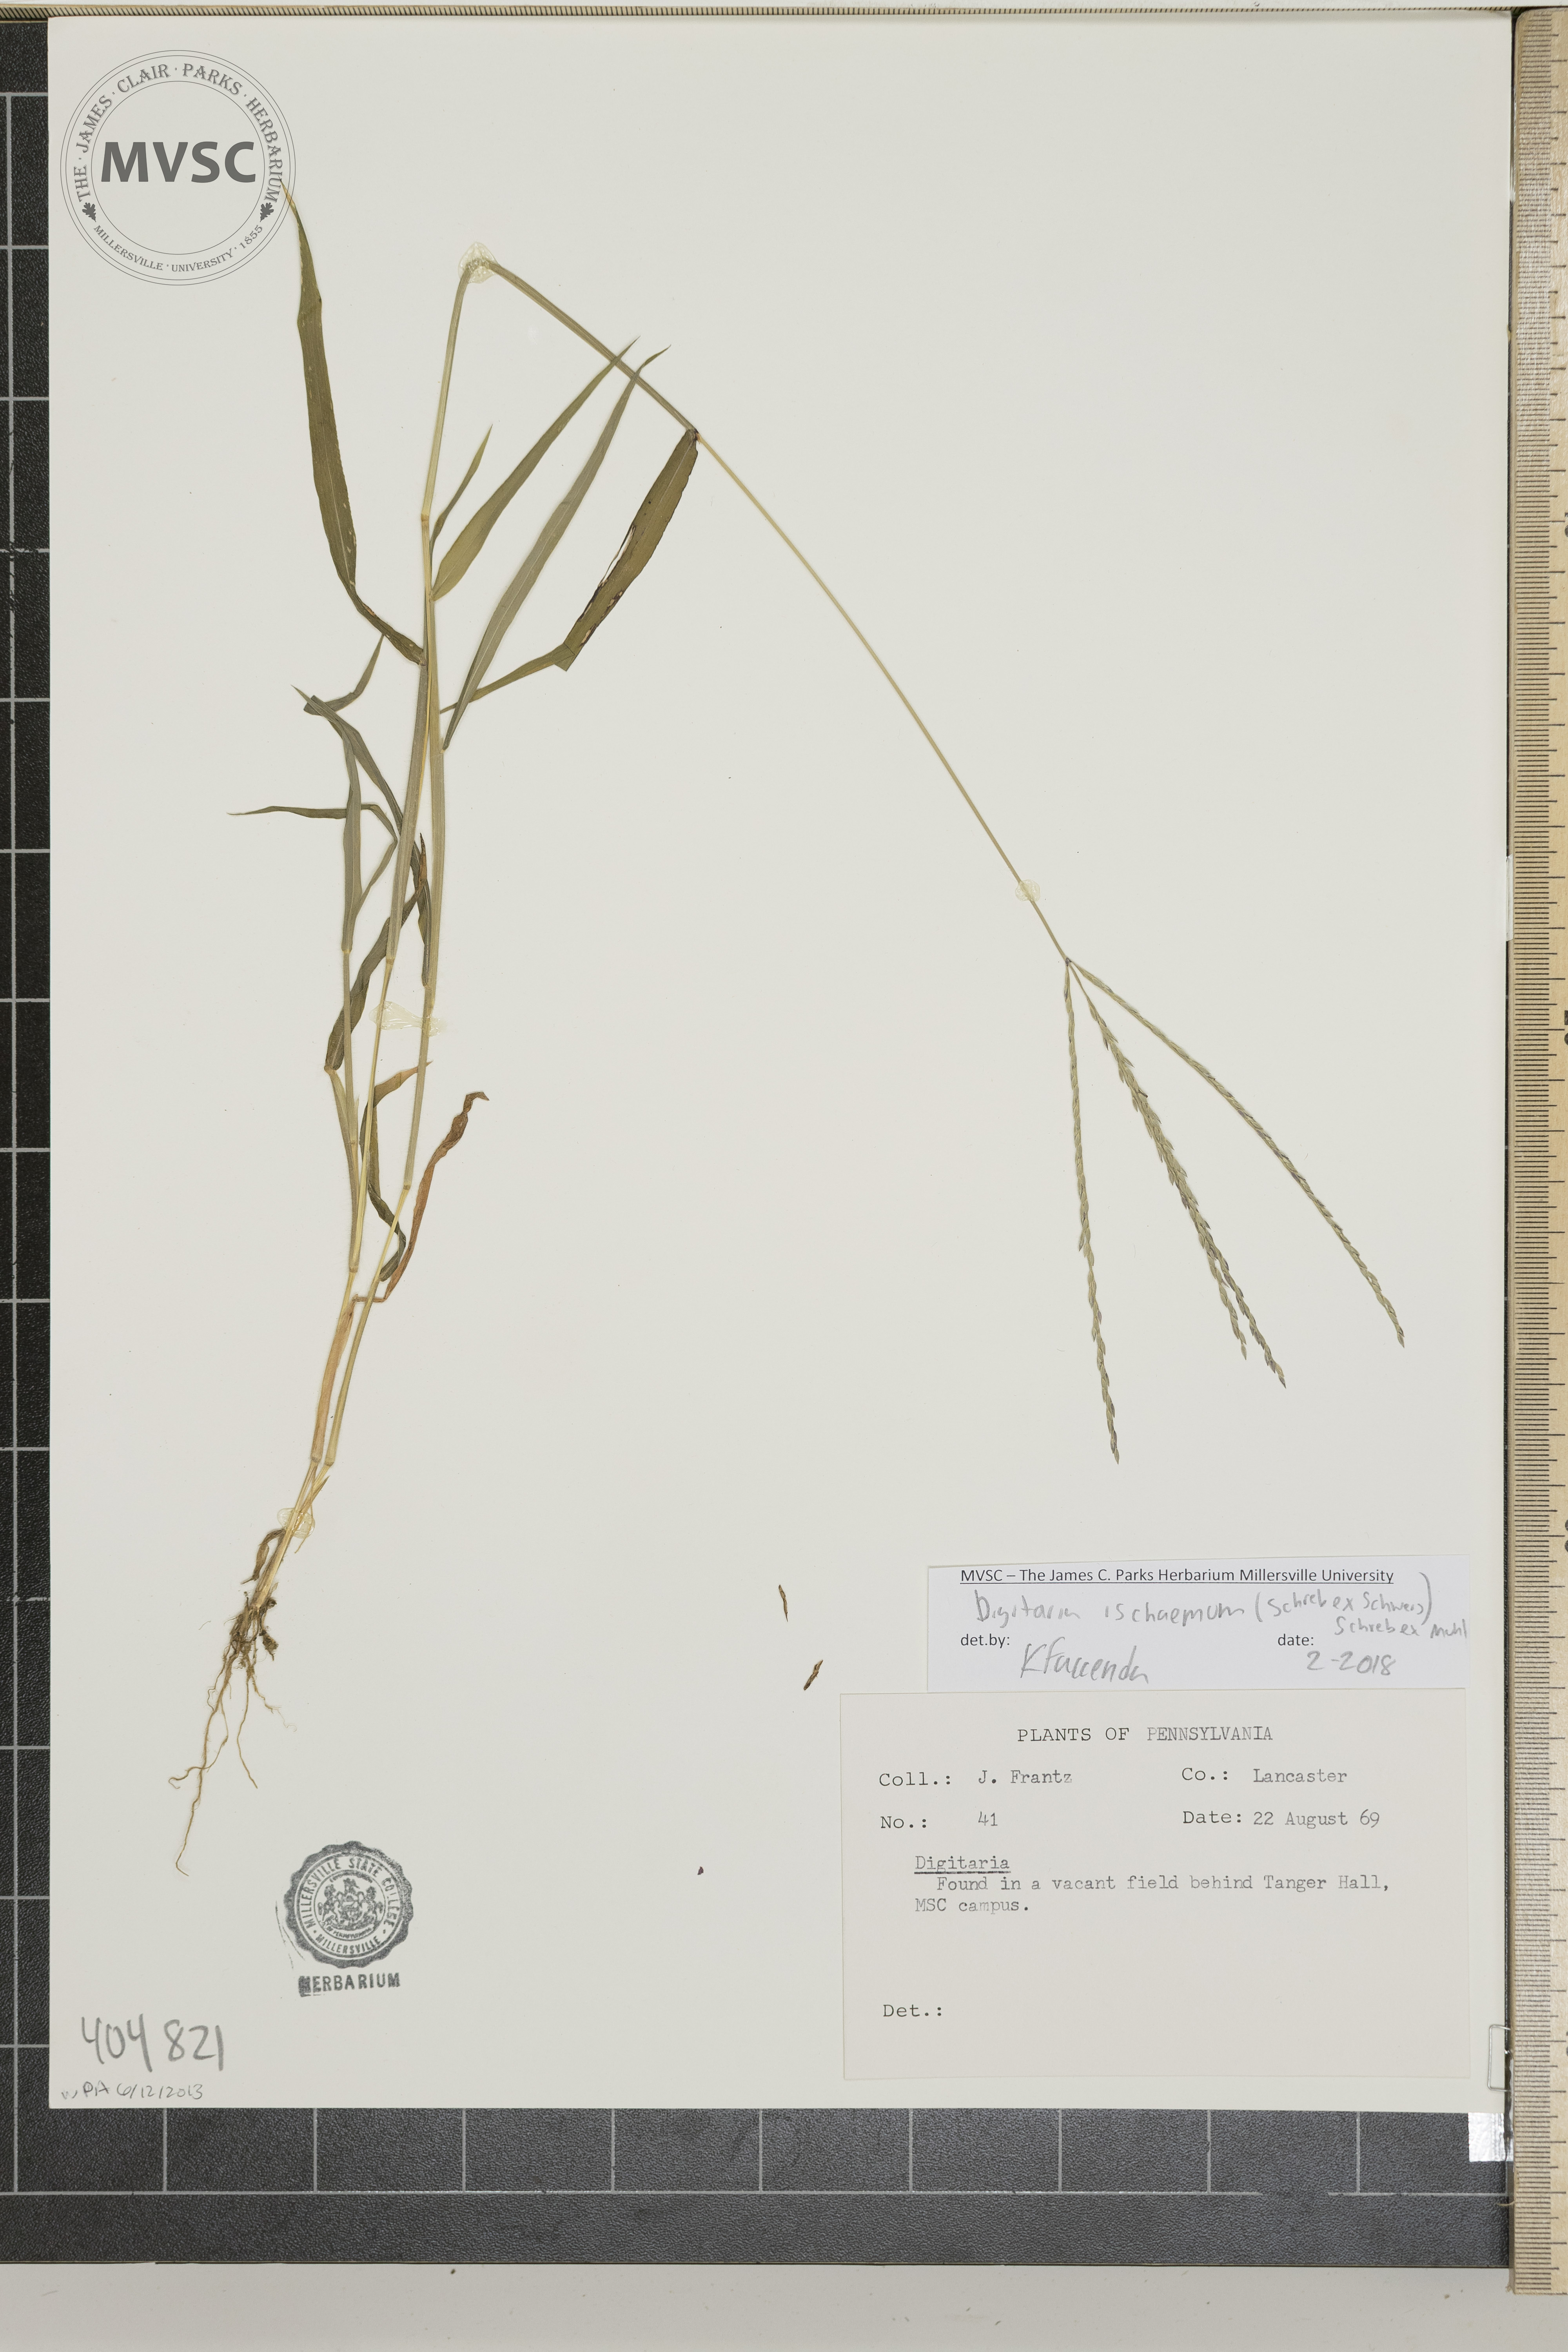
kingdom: Plantae
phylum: Tracheophyta
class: Liliopsida
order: Poales
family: Poaceae
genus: Digitaria
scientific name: Digitaria ischaemum
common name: Smooth crabgrass
